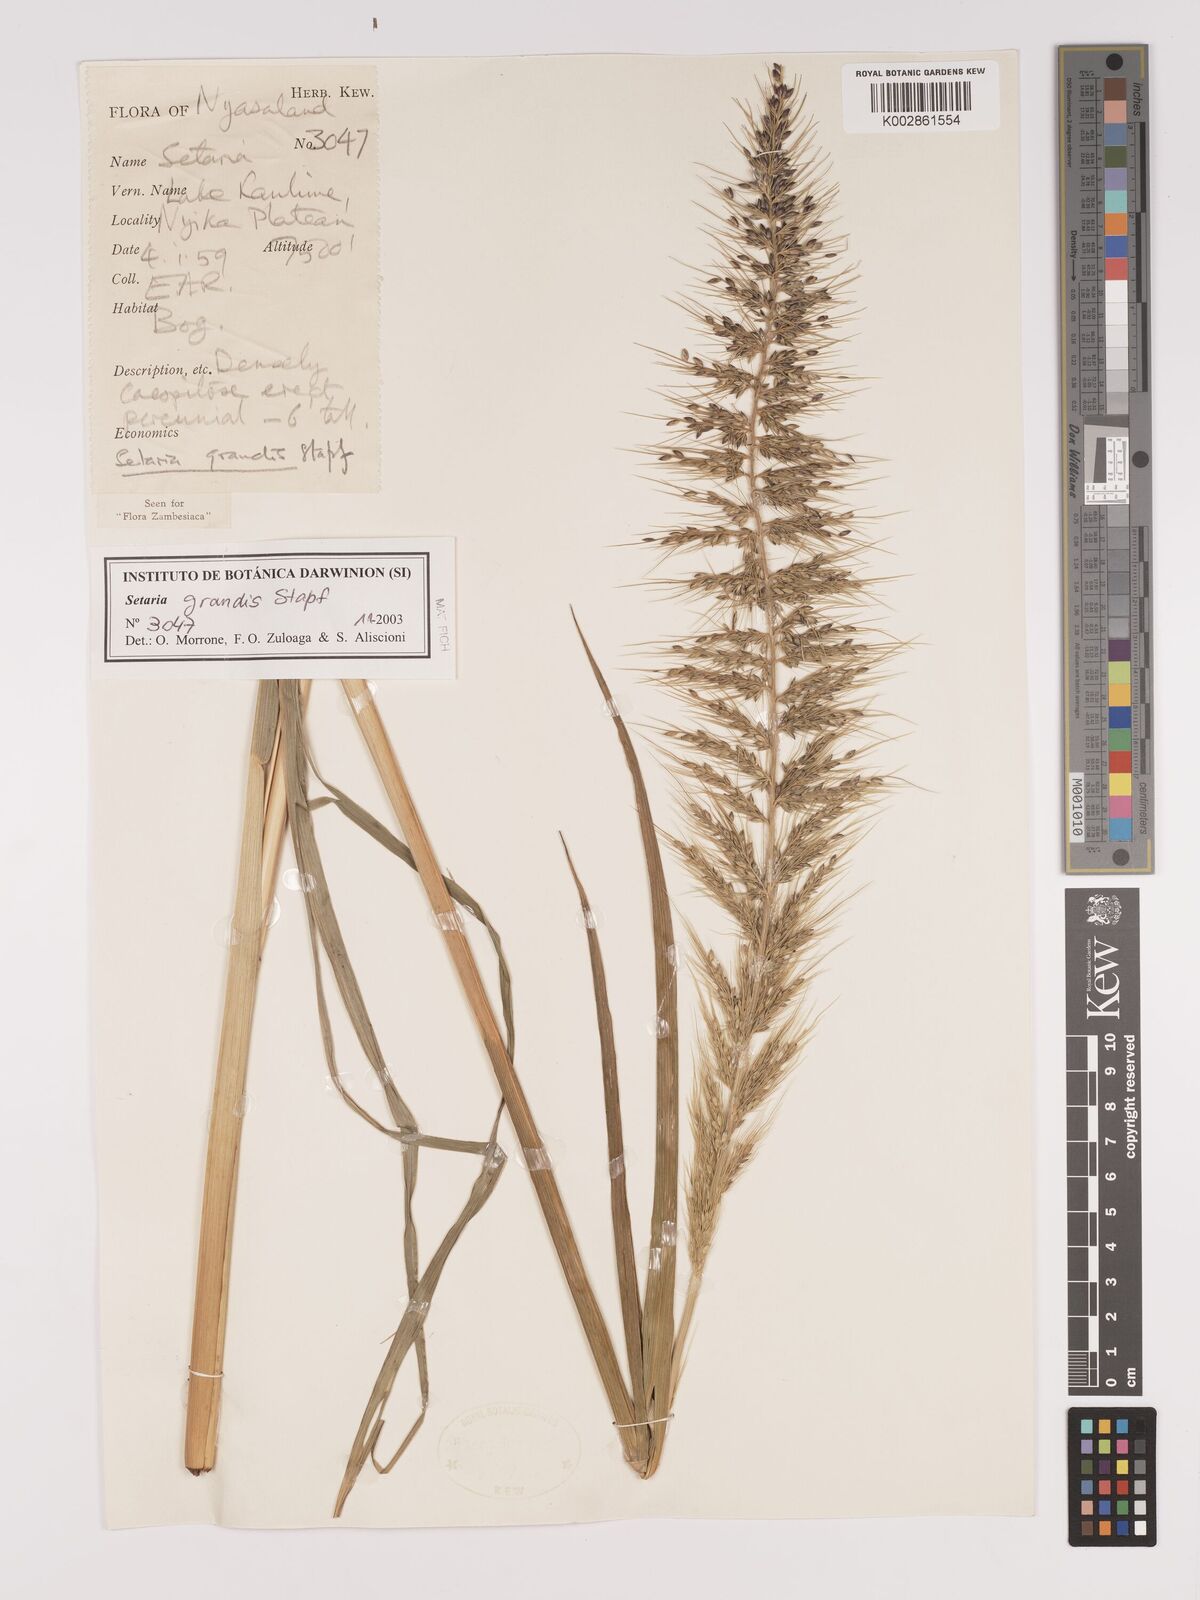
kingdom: Plantae
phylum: Tracheophyta
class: Liliopsida
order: Poales
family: Poaceae
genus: Setaria
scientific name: Setaria grandis
